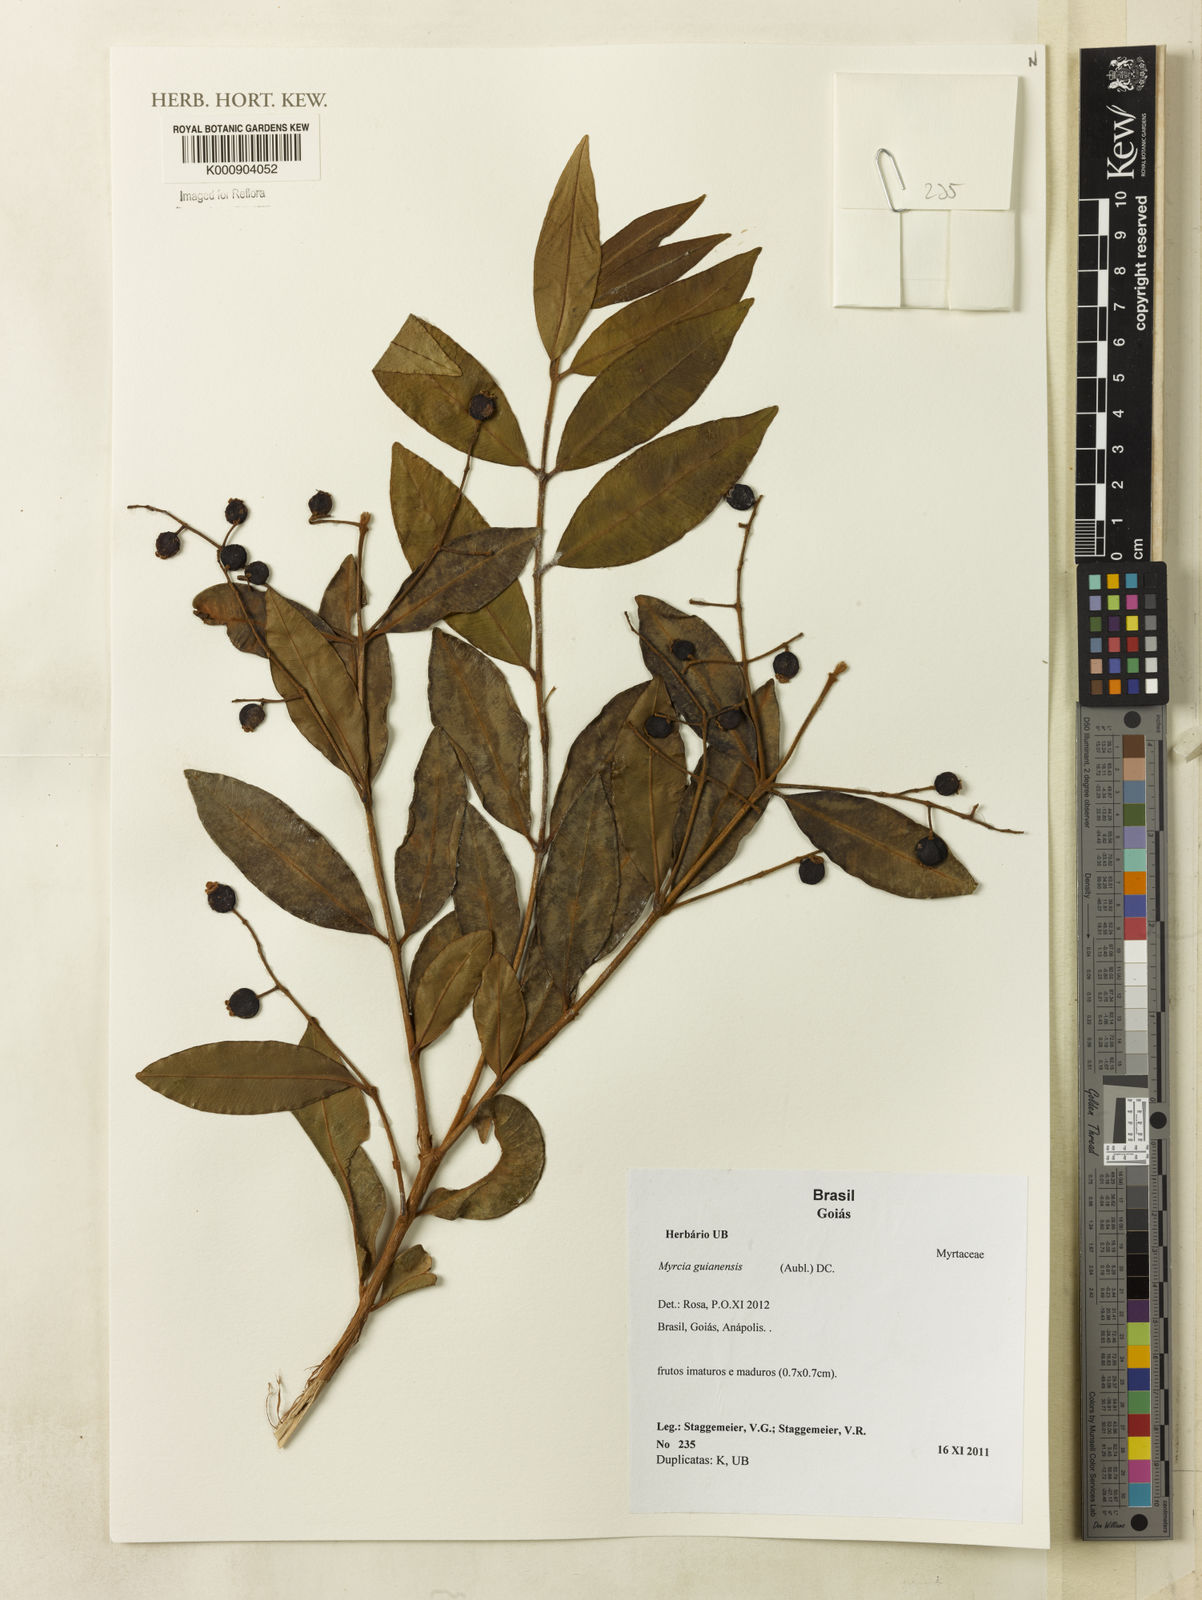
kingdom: Plantae
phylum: Tracheophyta
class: Magnoliopsida
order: Myrtales
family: Myrtaceae
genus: Myrcia
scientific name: Myrcia guianensis
